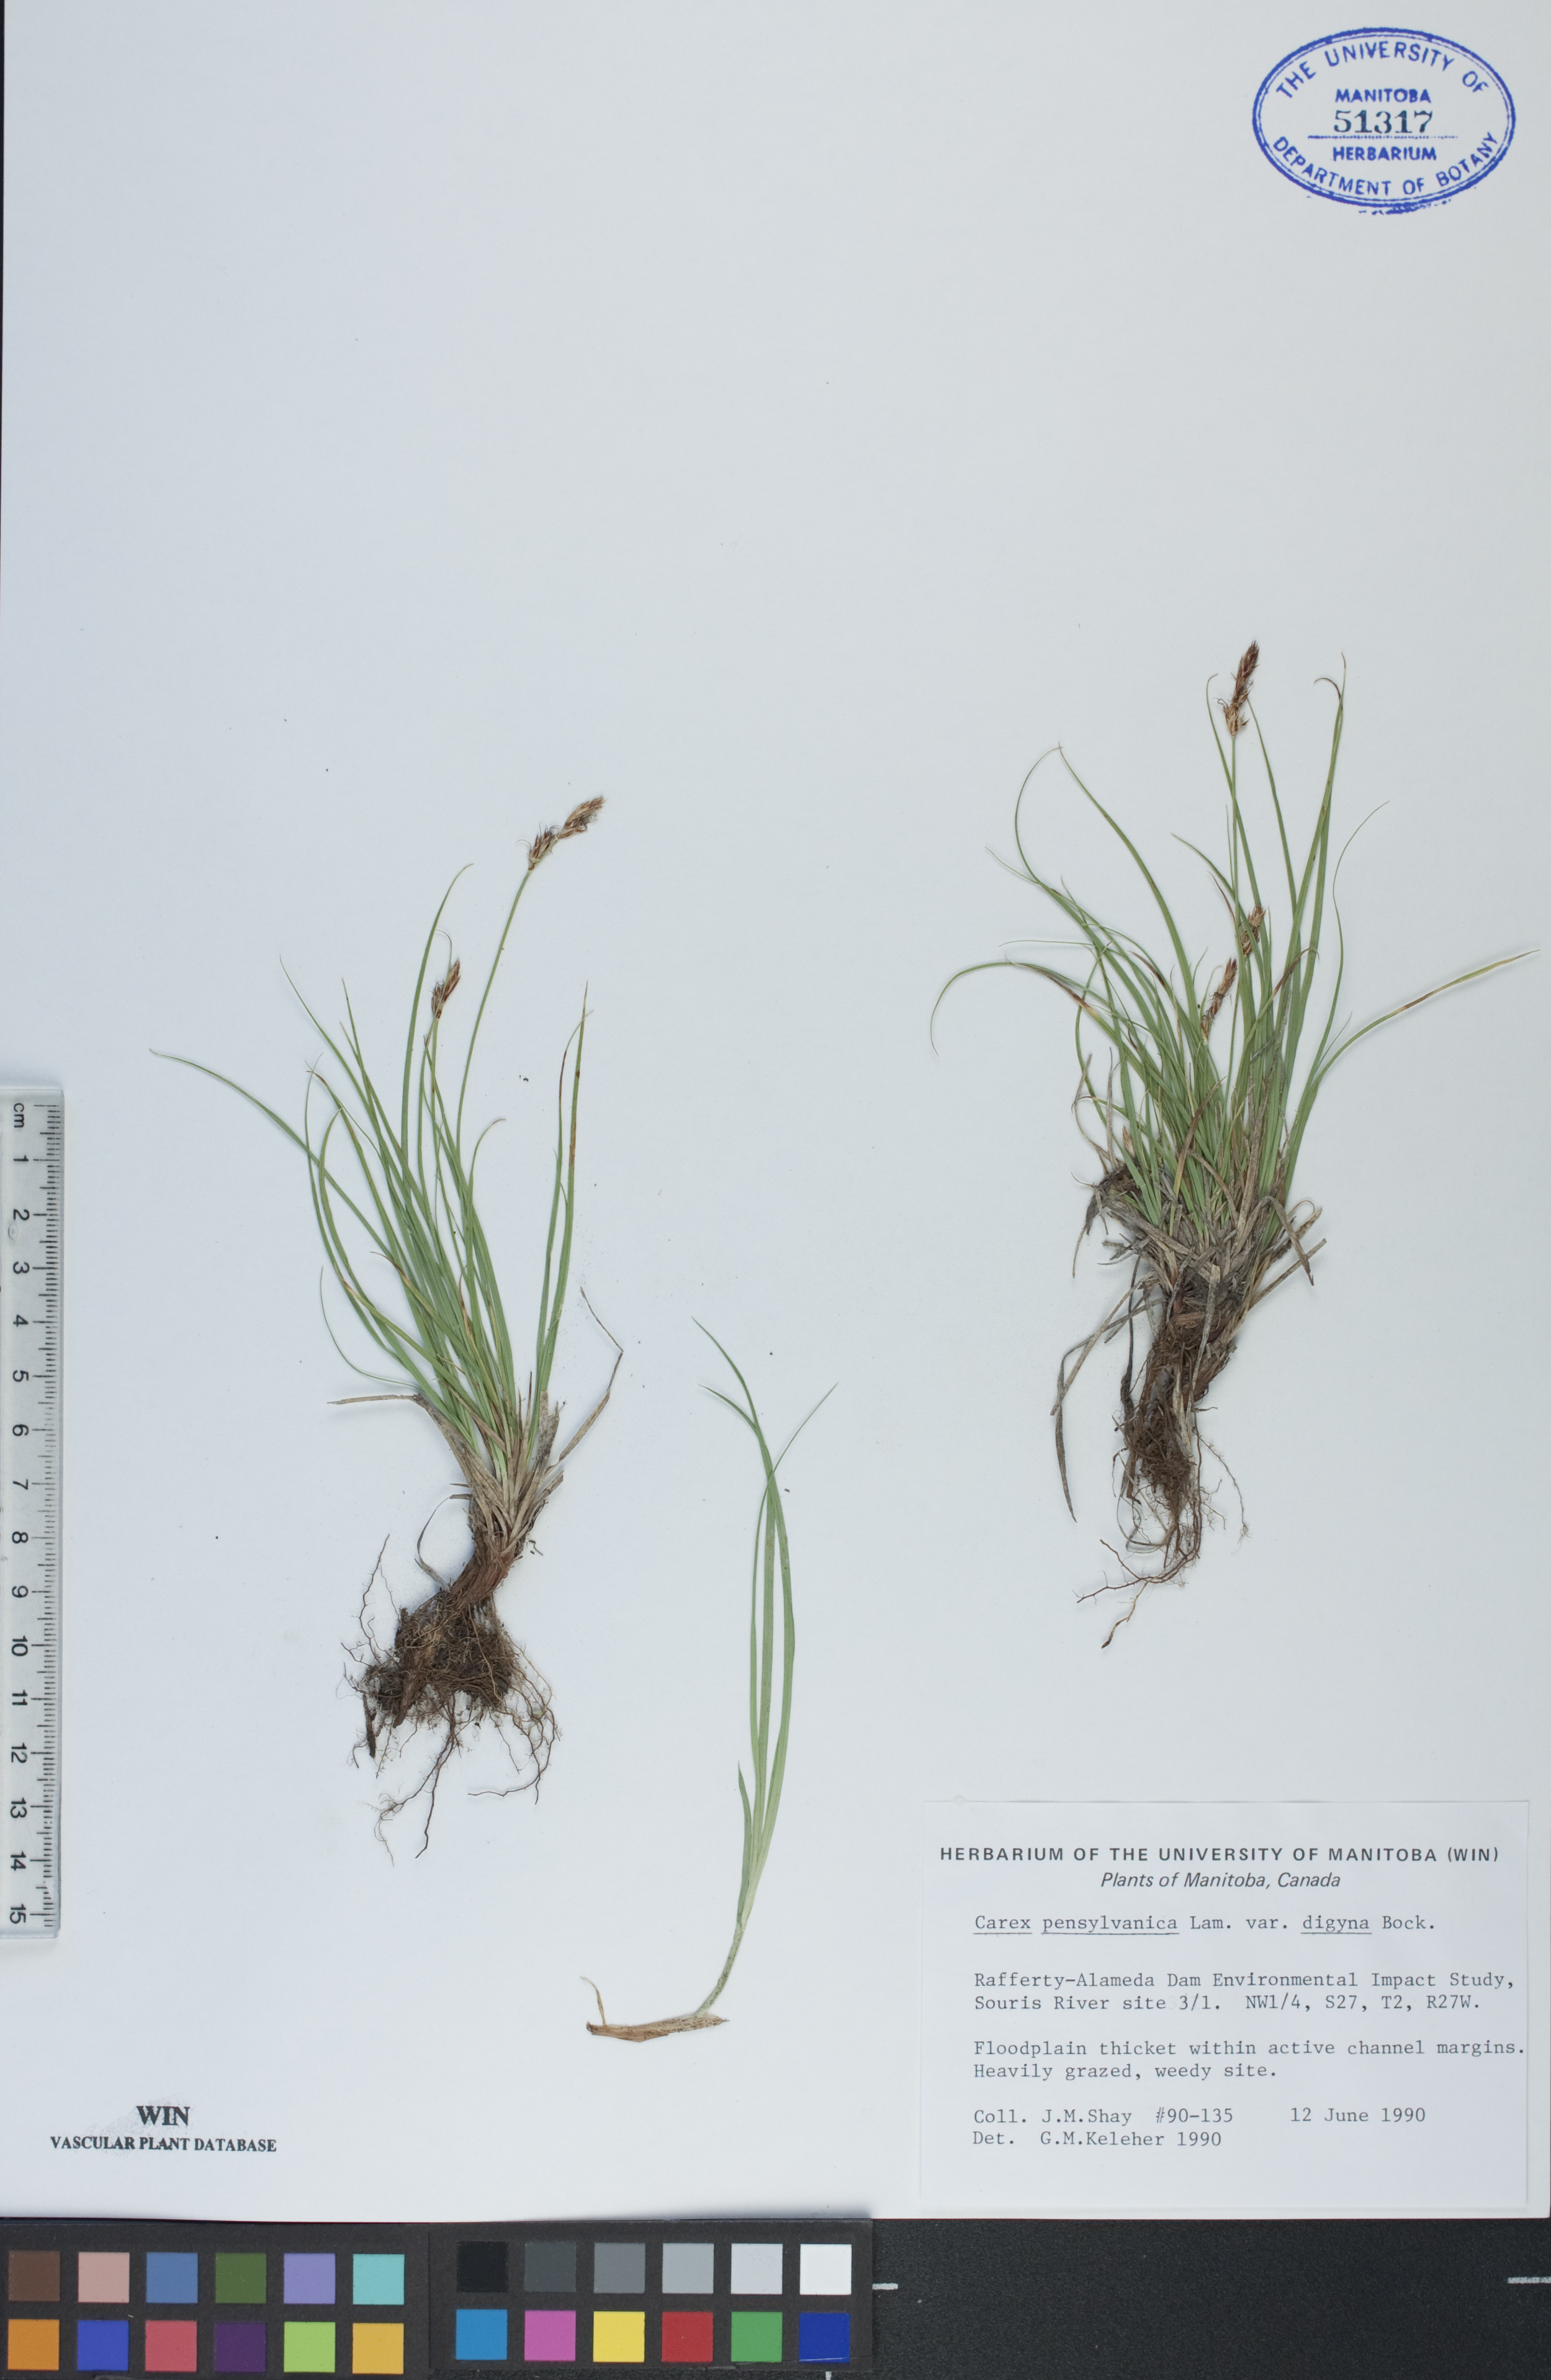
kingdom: Plantae
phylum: Tracheophyta
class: Liliopsida
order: Poales
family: Cyperaceae
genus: Carex
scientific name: Carex pensylvanica
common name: Common oak sedge
